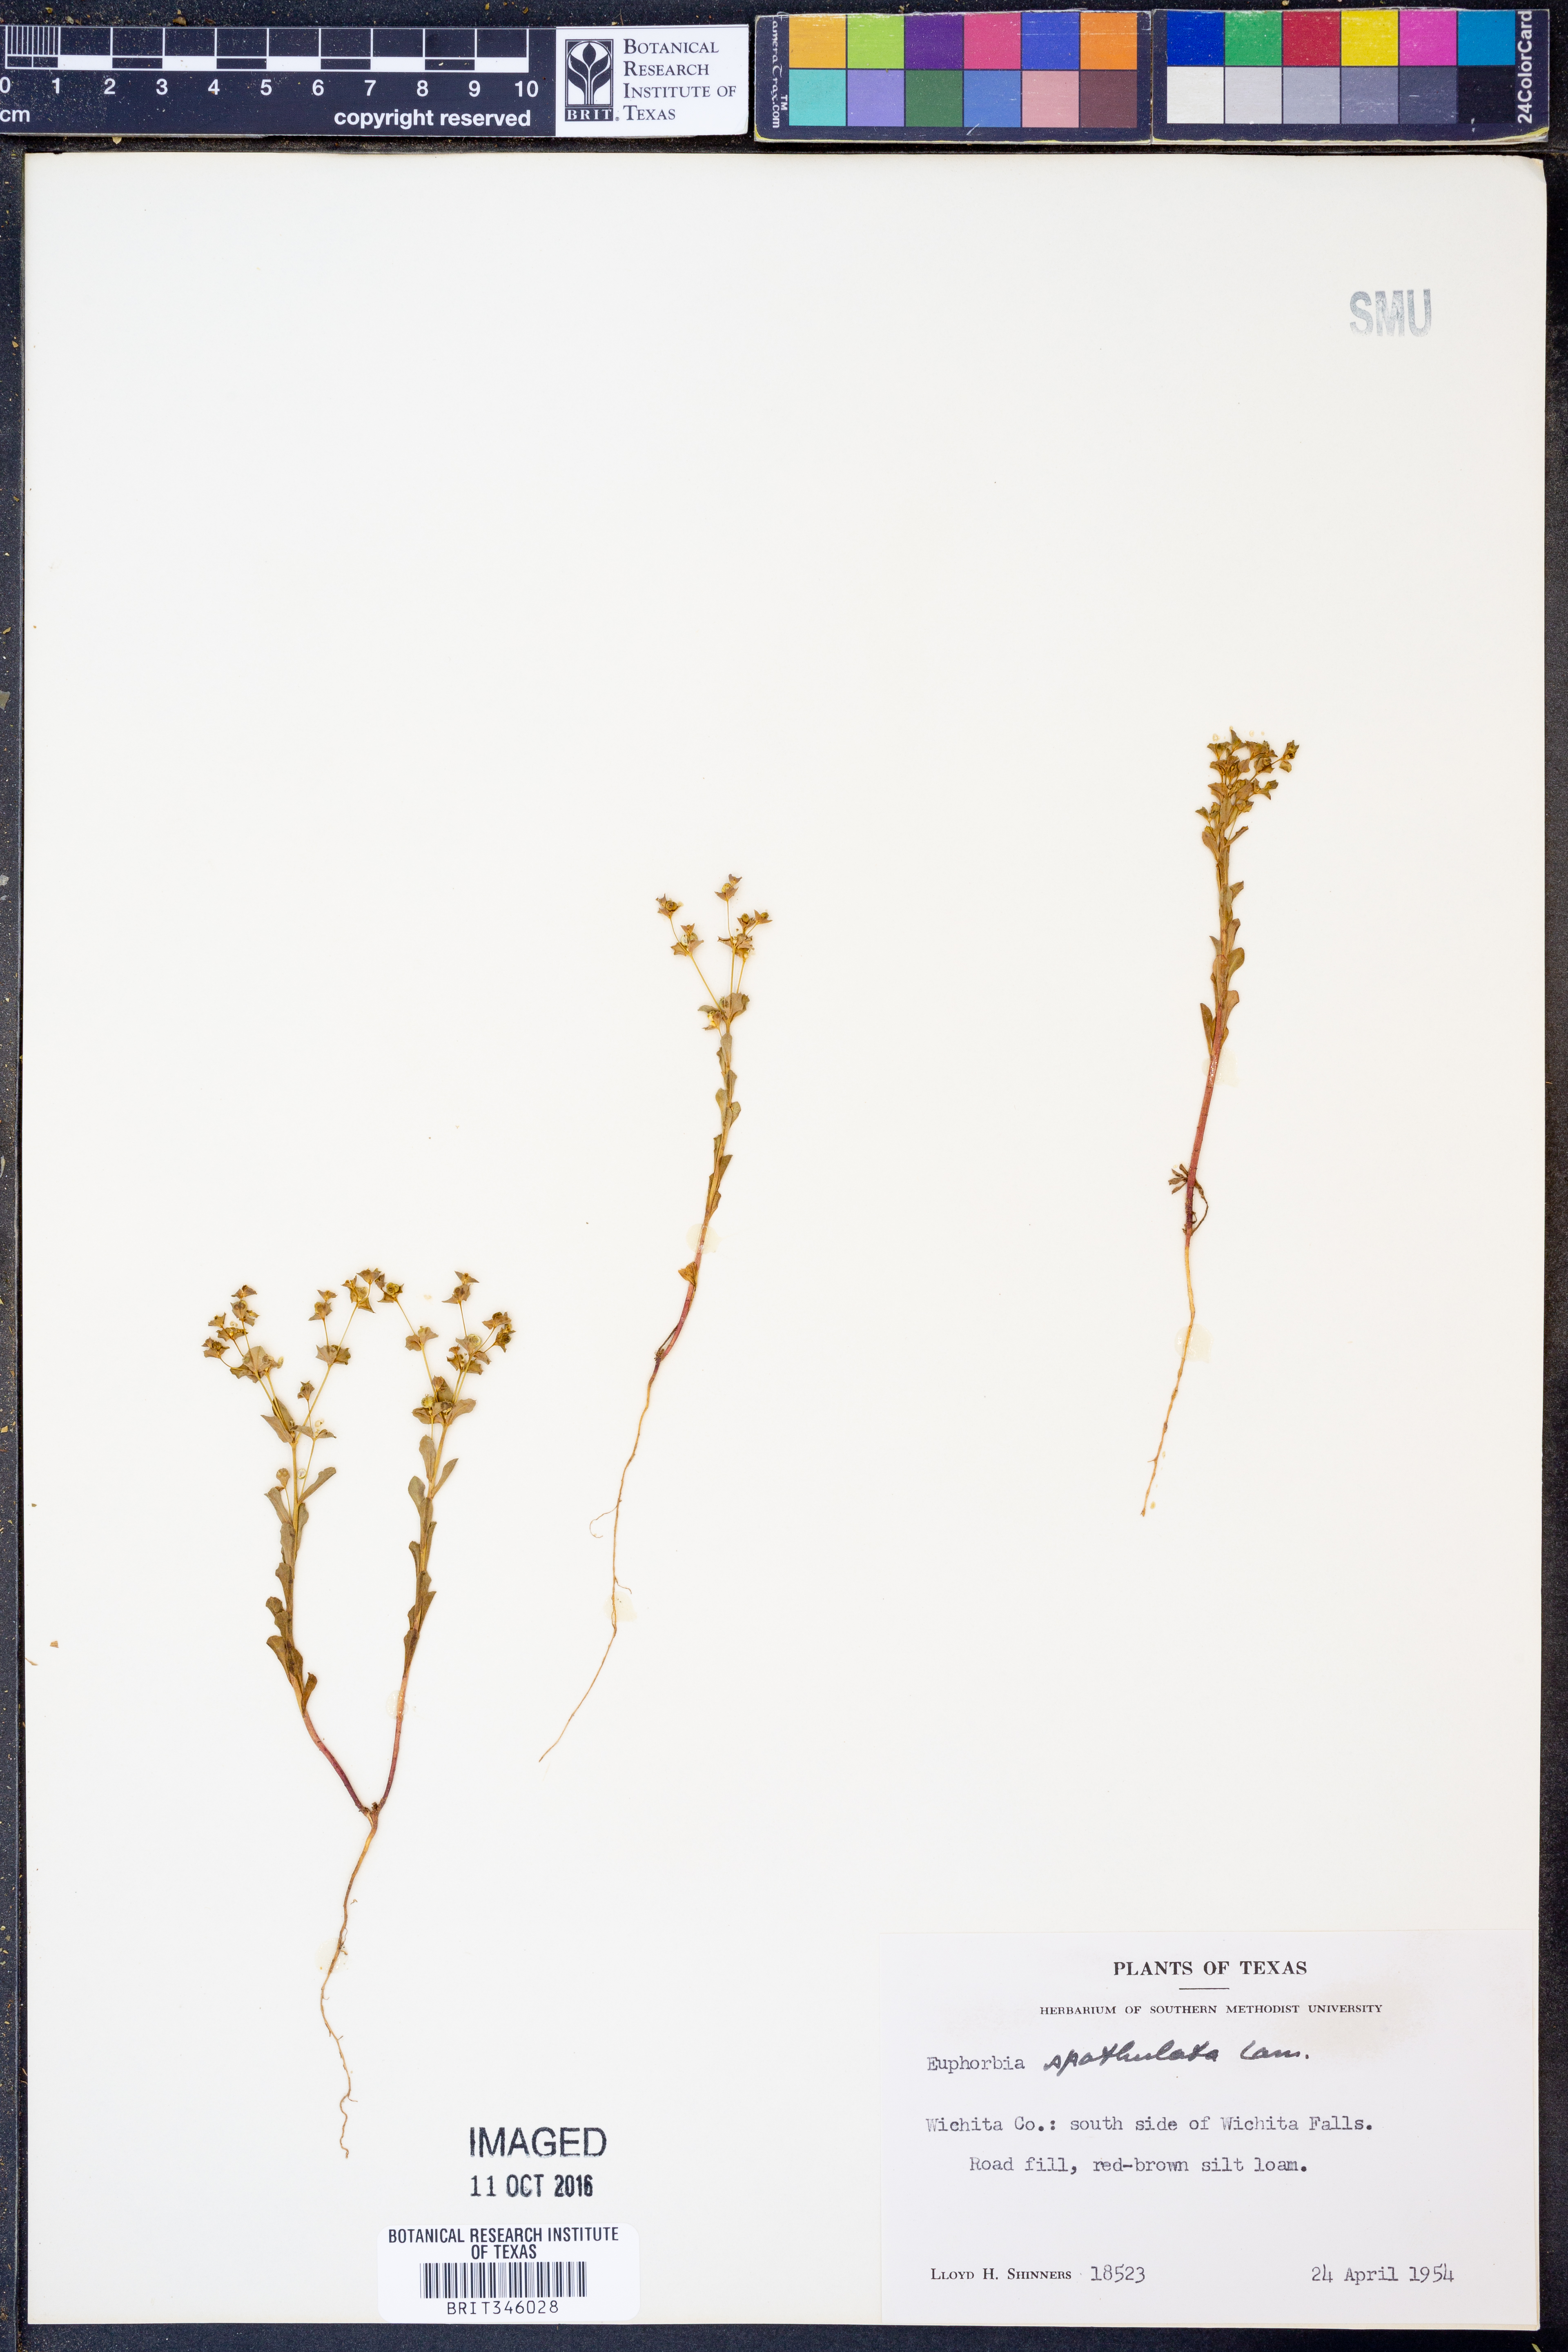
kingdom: Plantae
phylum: Tracheophyta
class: Magnoliopsida
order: Malpighiales
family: Euphorbiaceae
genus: Euphorbia
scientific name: Euphorbia spathulata
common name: Blunt spurge
